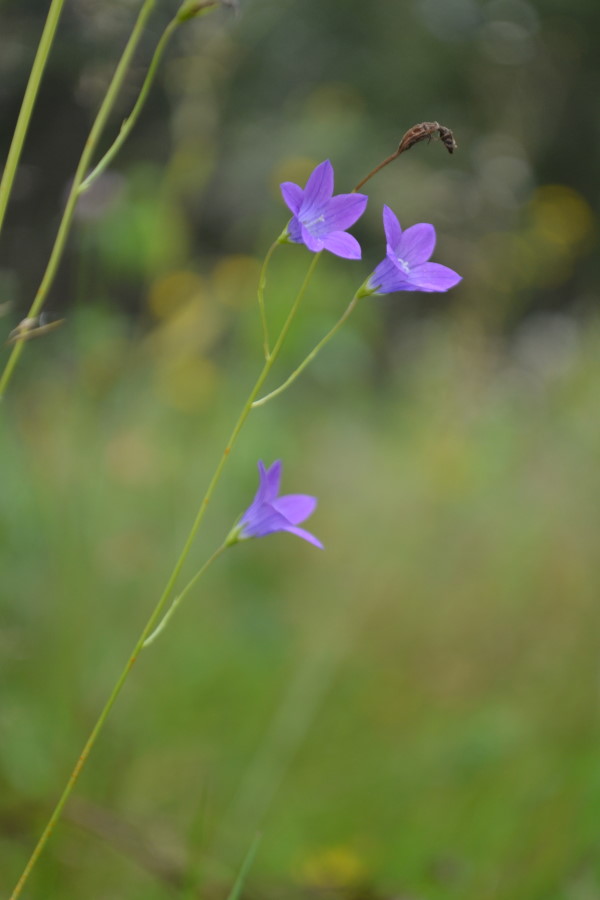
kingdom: Plantae
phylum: Tracheophyta
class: Magnoliopsida
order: Asterales
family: Campanulaceae
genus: Campanula
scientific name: Campanula patula
